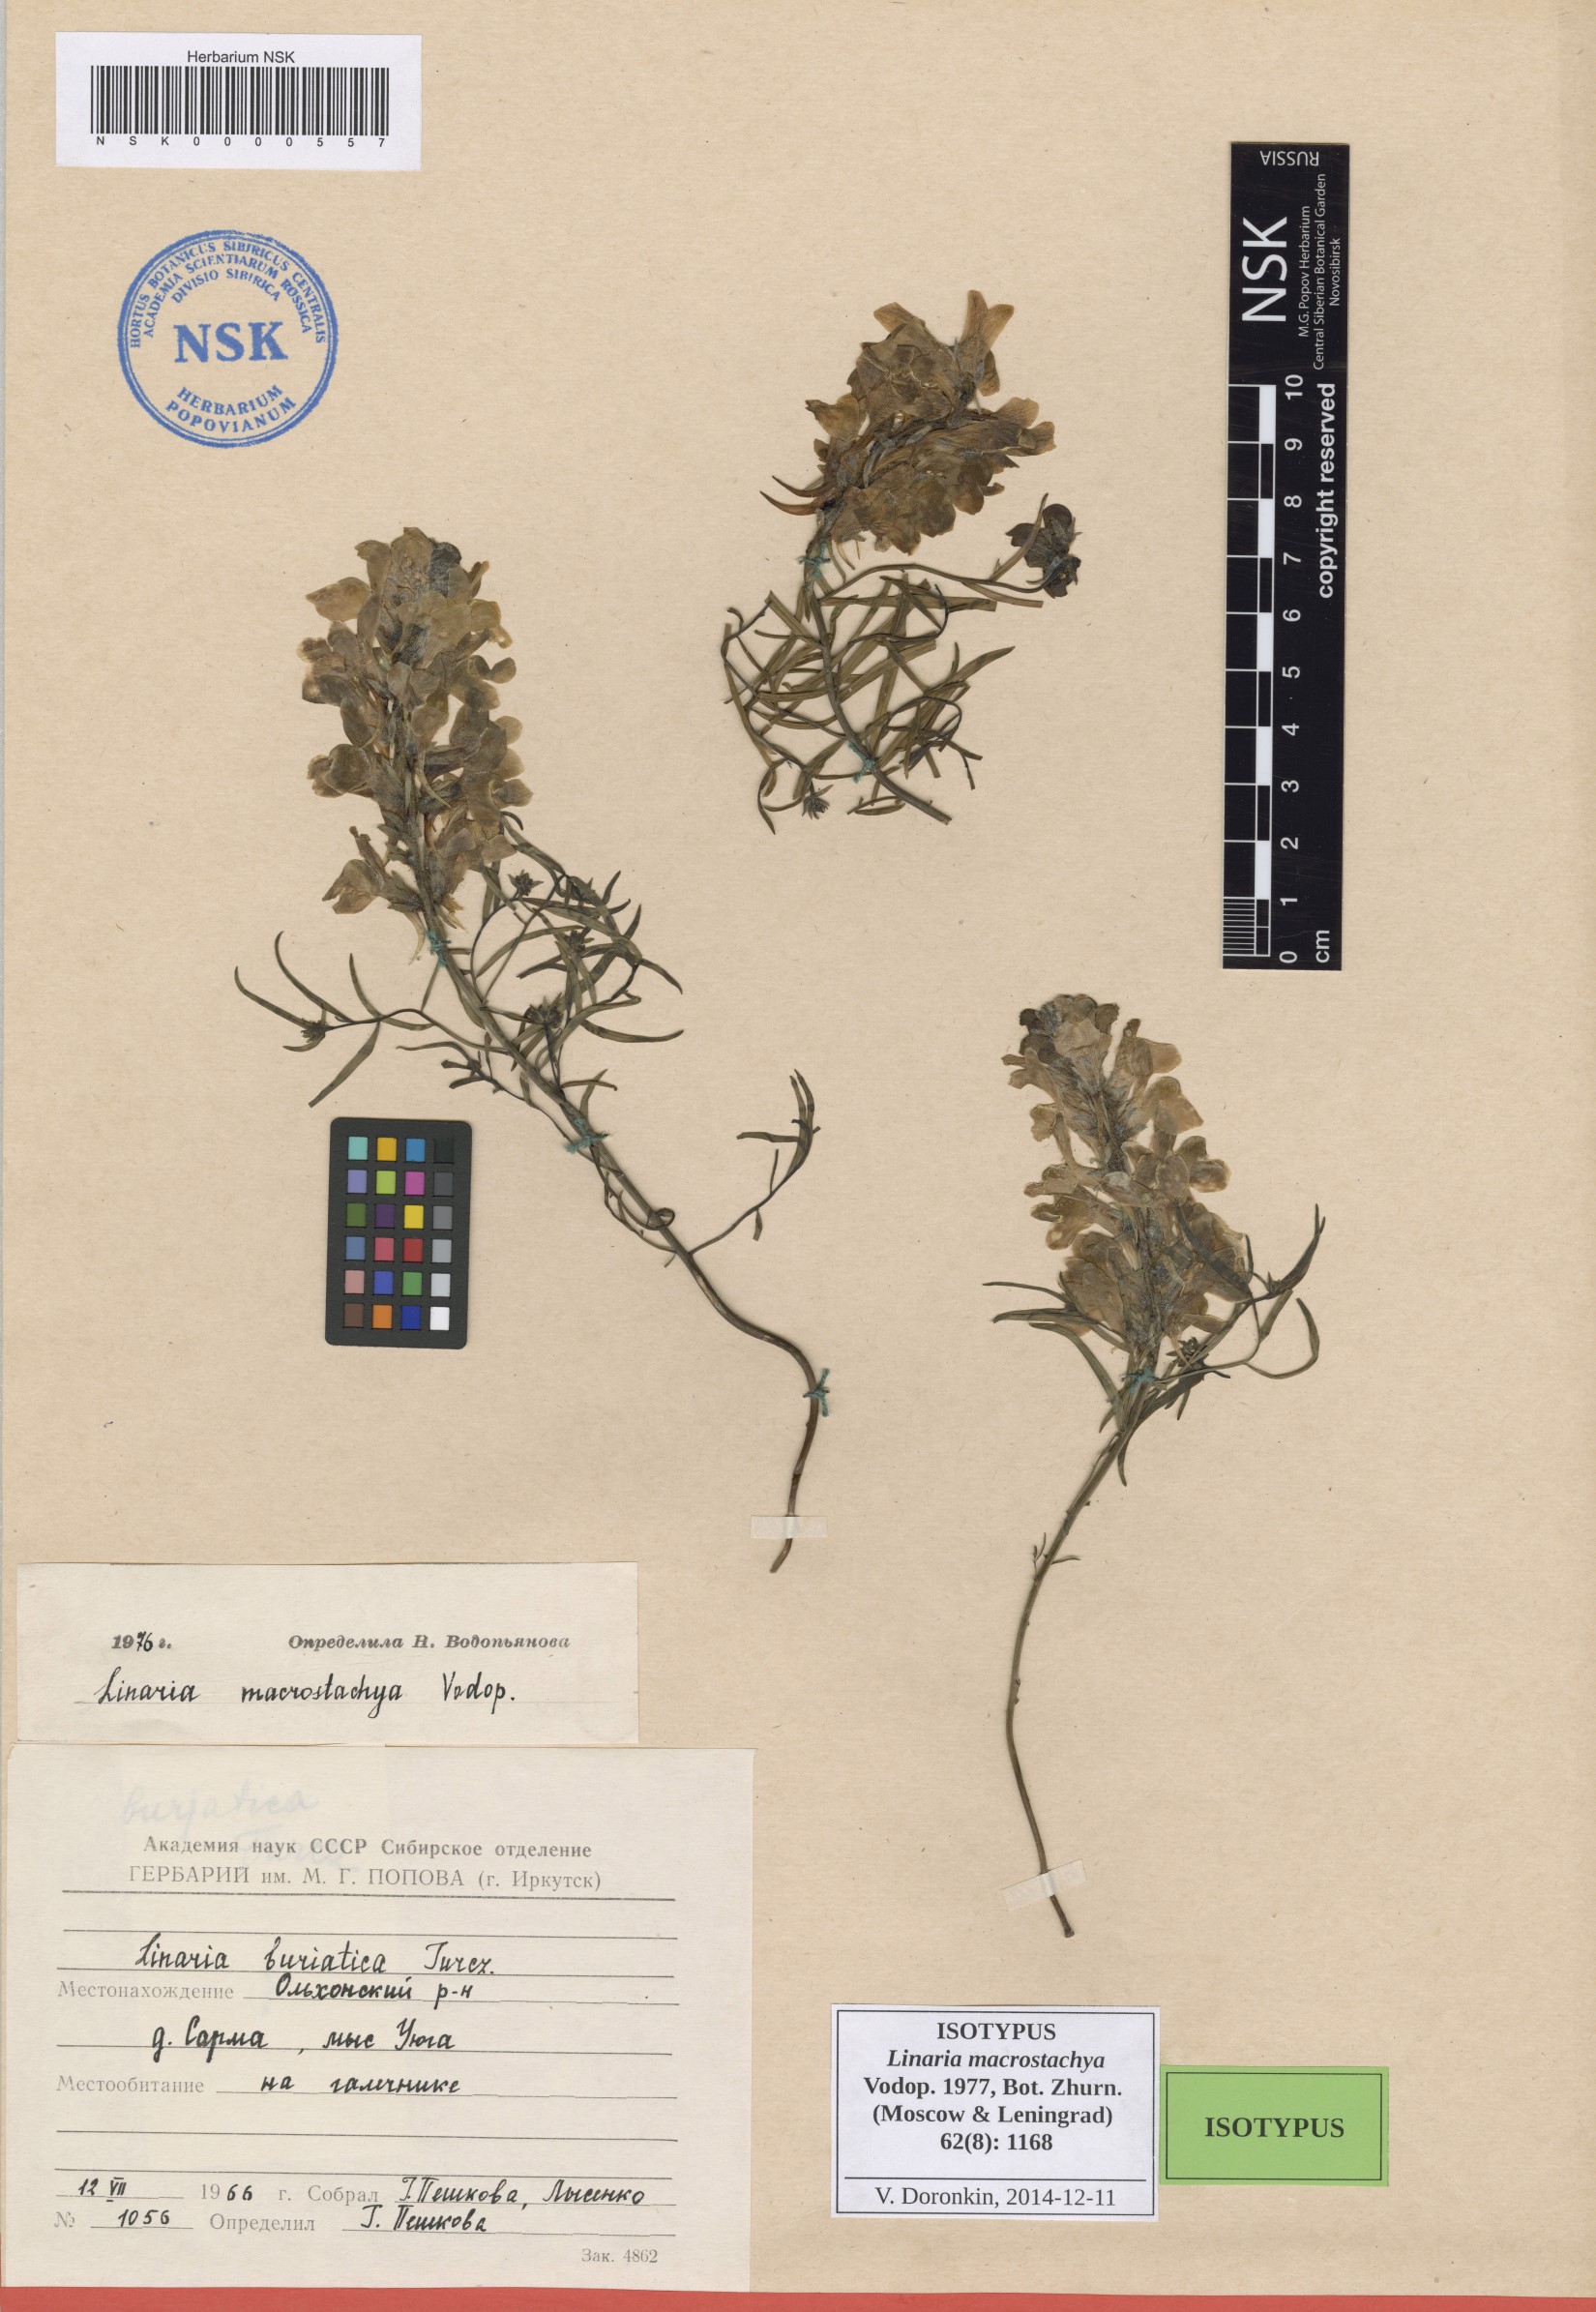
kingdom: Plantae
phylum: Tracheophyta
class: Magnoliopsida
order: Lamiales
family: Plantaginaceae
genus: Linaria
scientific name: Linaria buriatica
